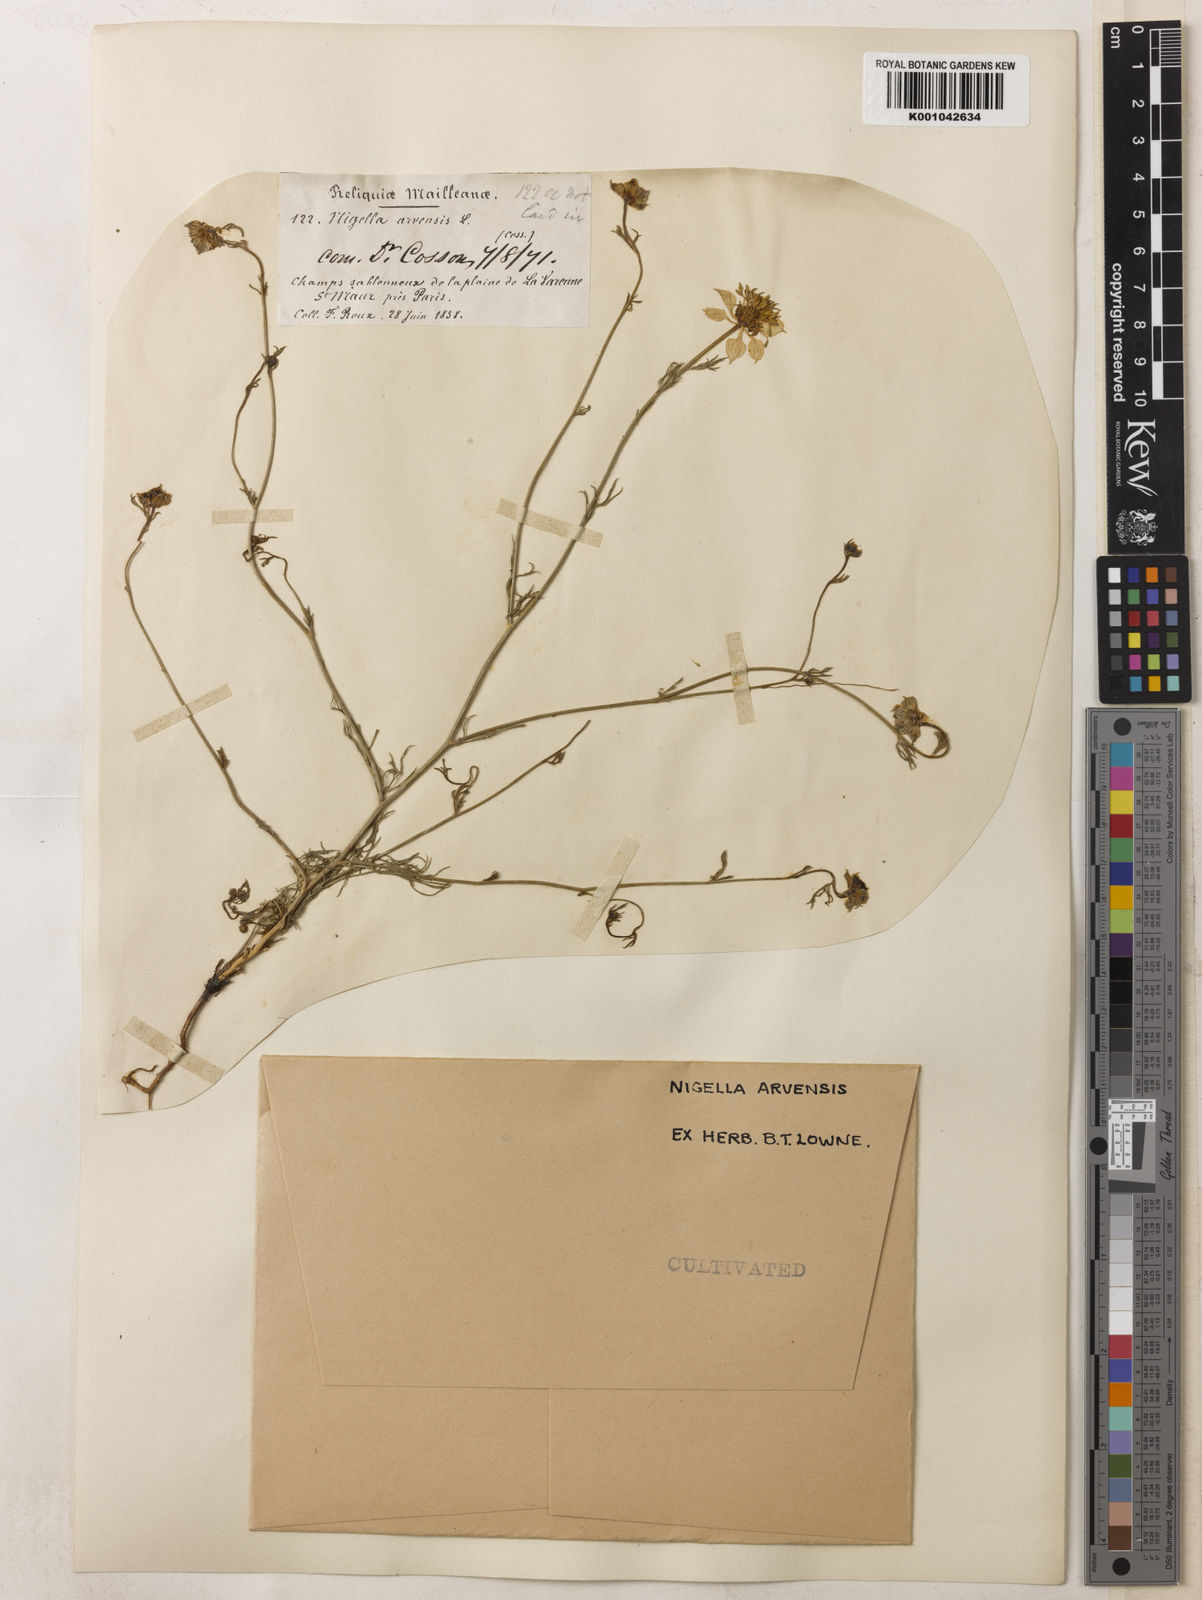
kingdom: Plantae
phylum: Tracheophyta
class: Magnoliopsida
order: Ranunculales
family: Ranunculaceae
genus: Nigella
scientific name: Nigella arvensis
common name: Wild fennel-flower
